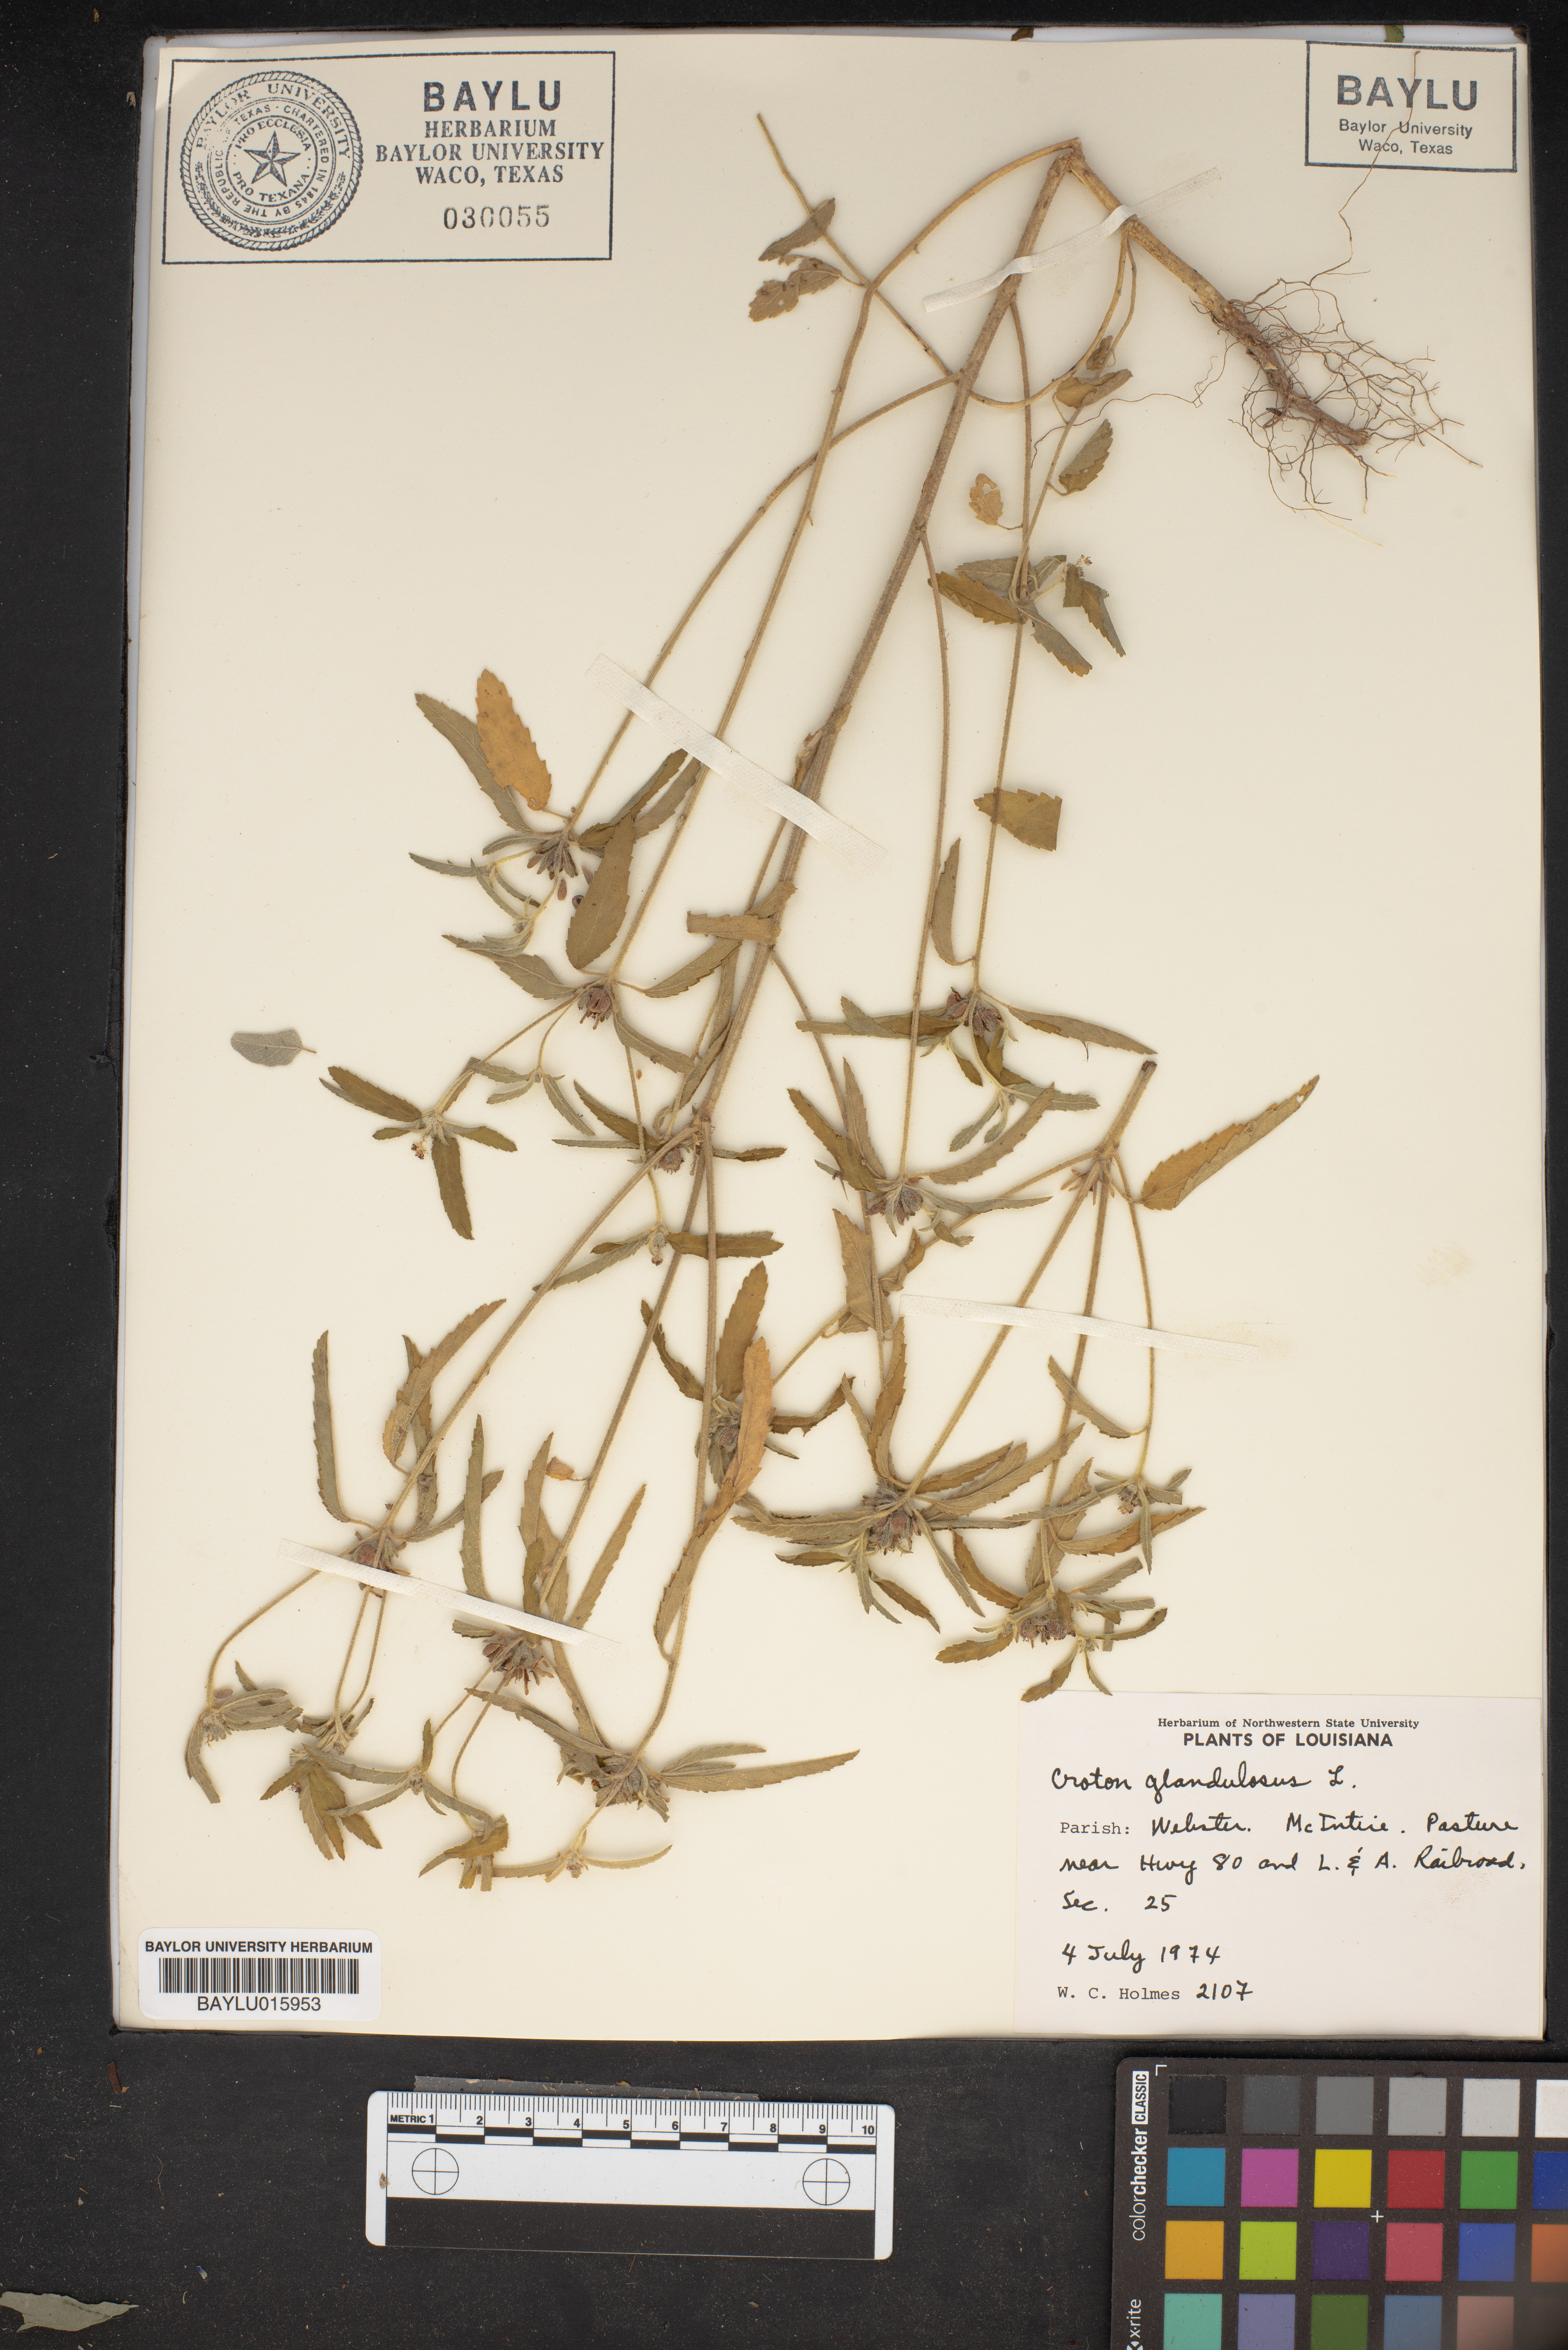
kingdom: Plantae
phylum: Tracheophyta
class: Magnoliopsida
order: Malpighiales
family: Euphorbiaceae
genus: Croton
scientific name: Croton glandulosus
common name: Tropic croton
